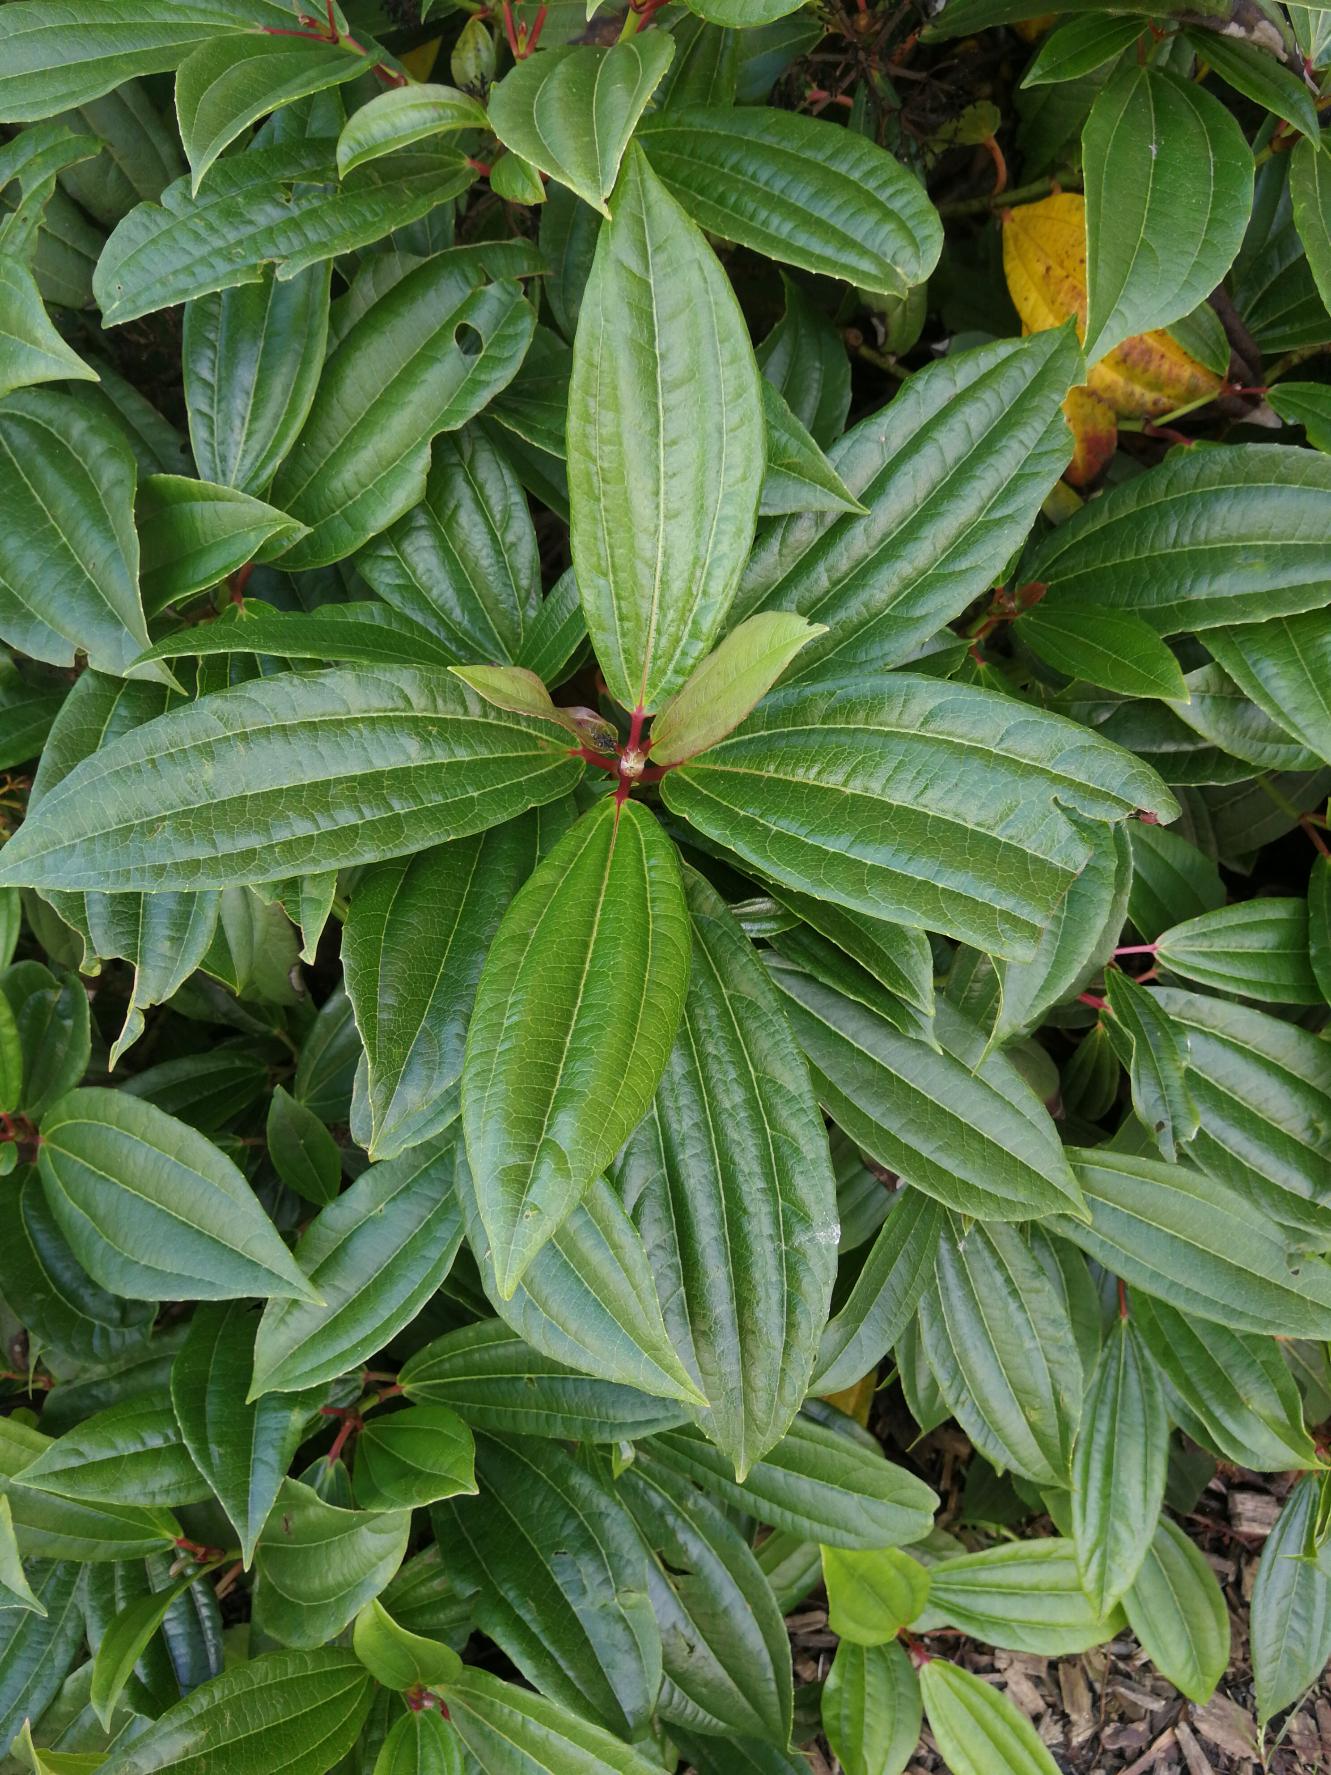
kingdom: Plantae
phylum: Tracheophyta
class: Magnoliopsida
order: Dipsacales
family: Viburnaceae
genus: Viburnum
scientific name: Viburnum
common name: Kvalkvedslægten
